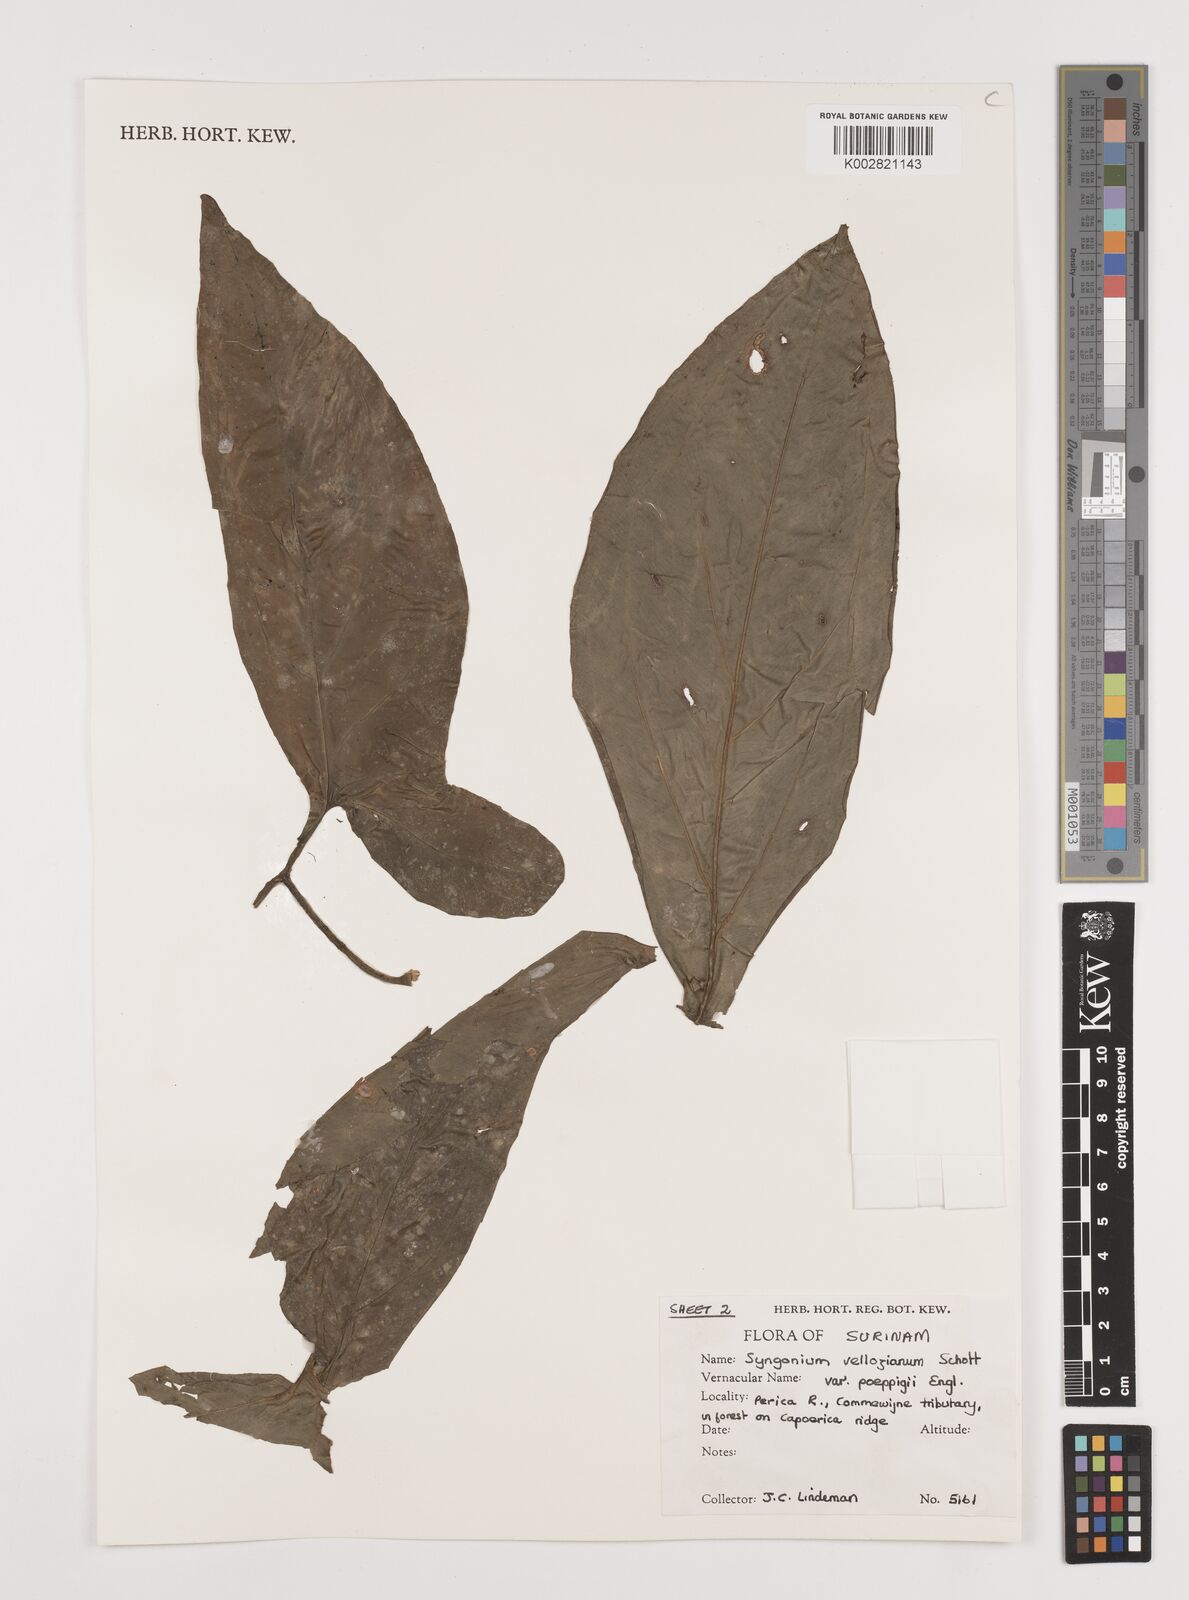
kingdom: Plantae
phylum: Tracheophyta
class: Liliopsida
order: Alismatales
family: Araceae
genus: Syngonium
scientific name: Syngonium podophyllum
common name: American evergreen
